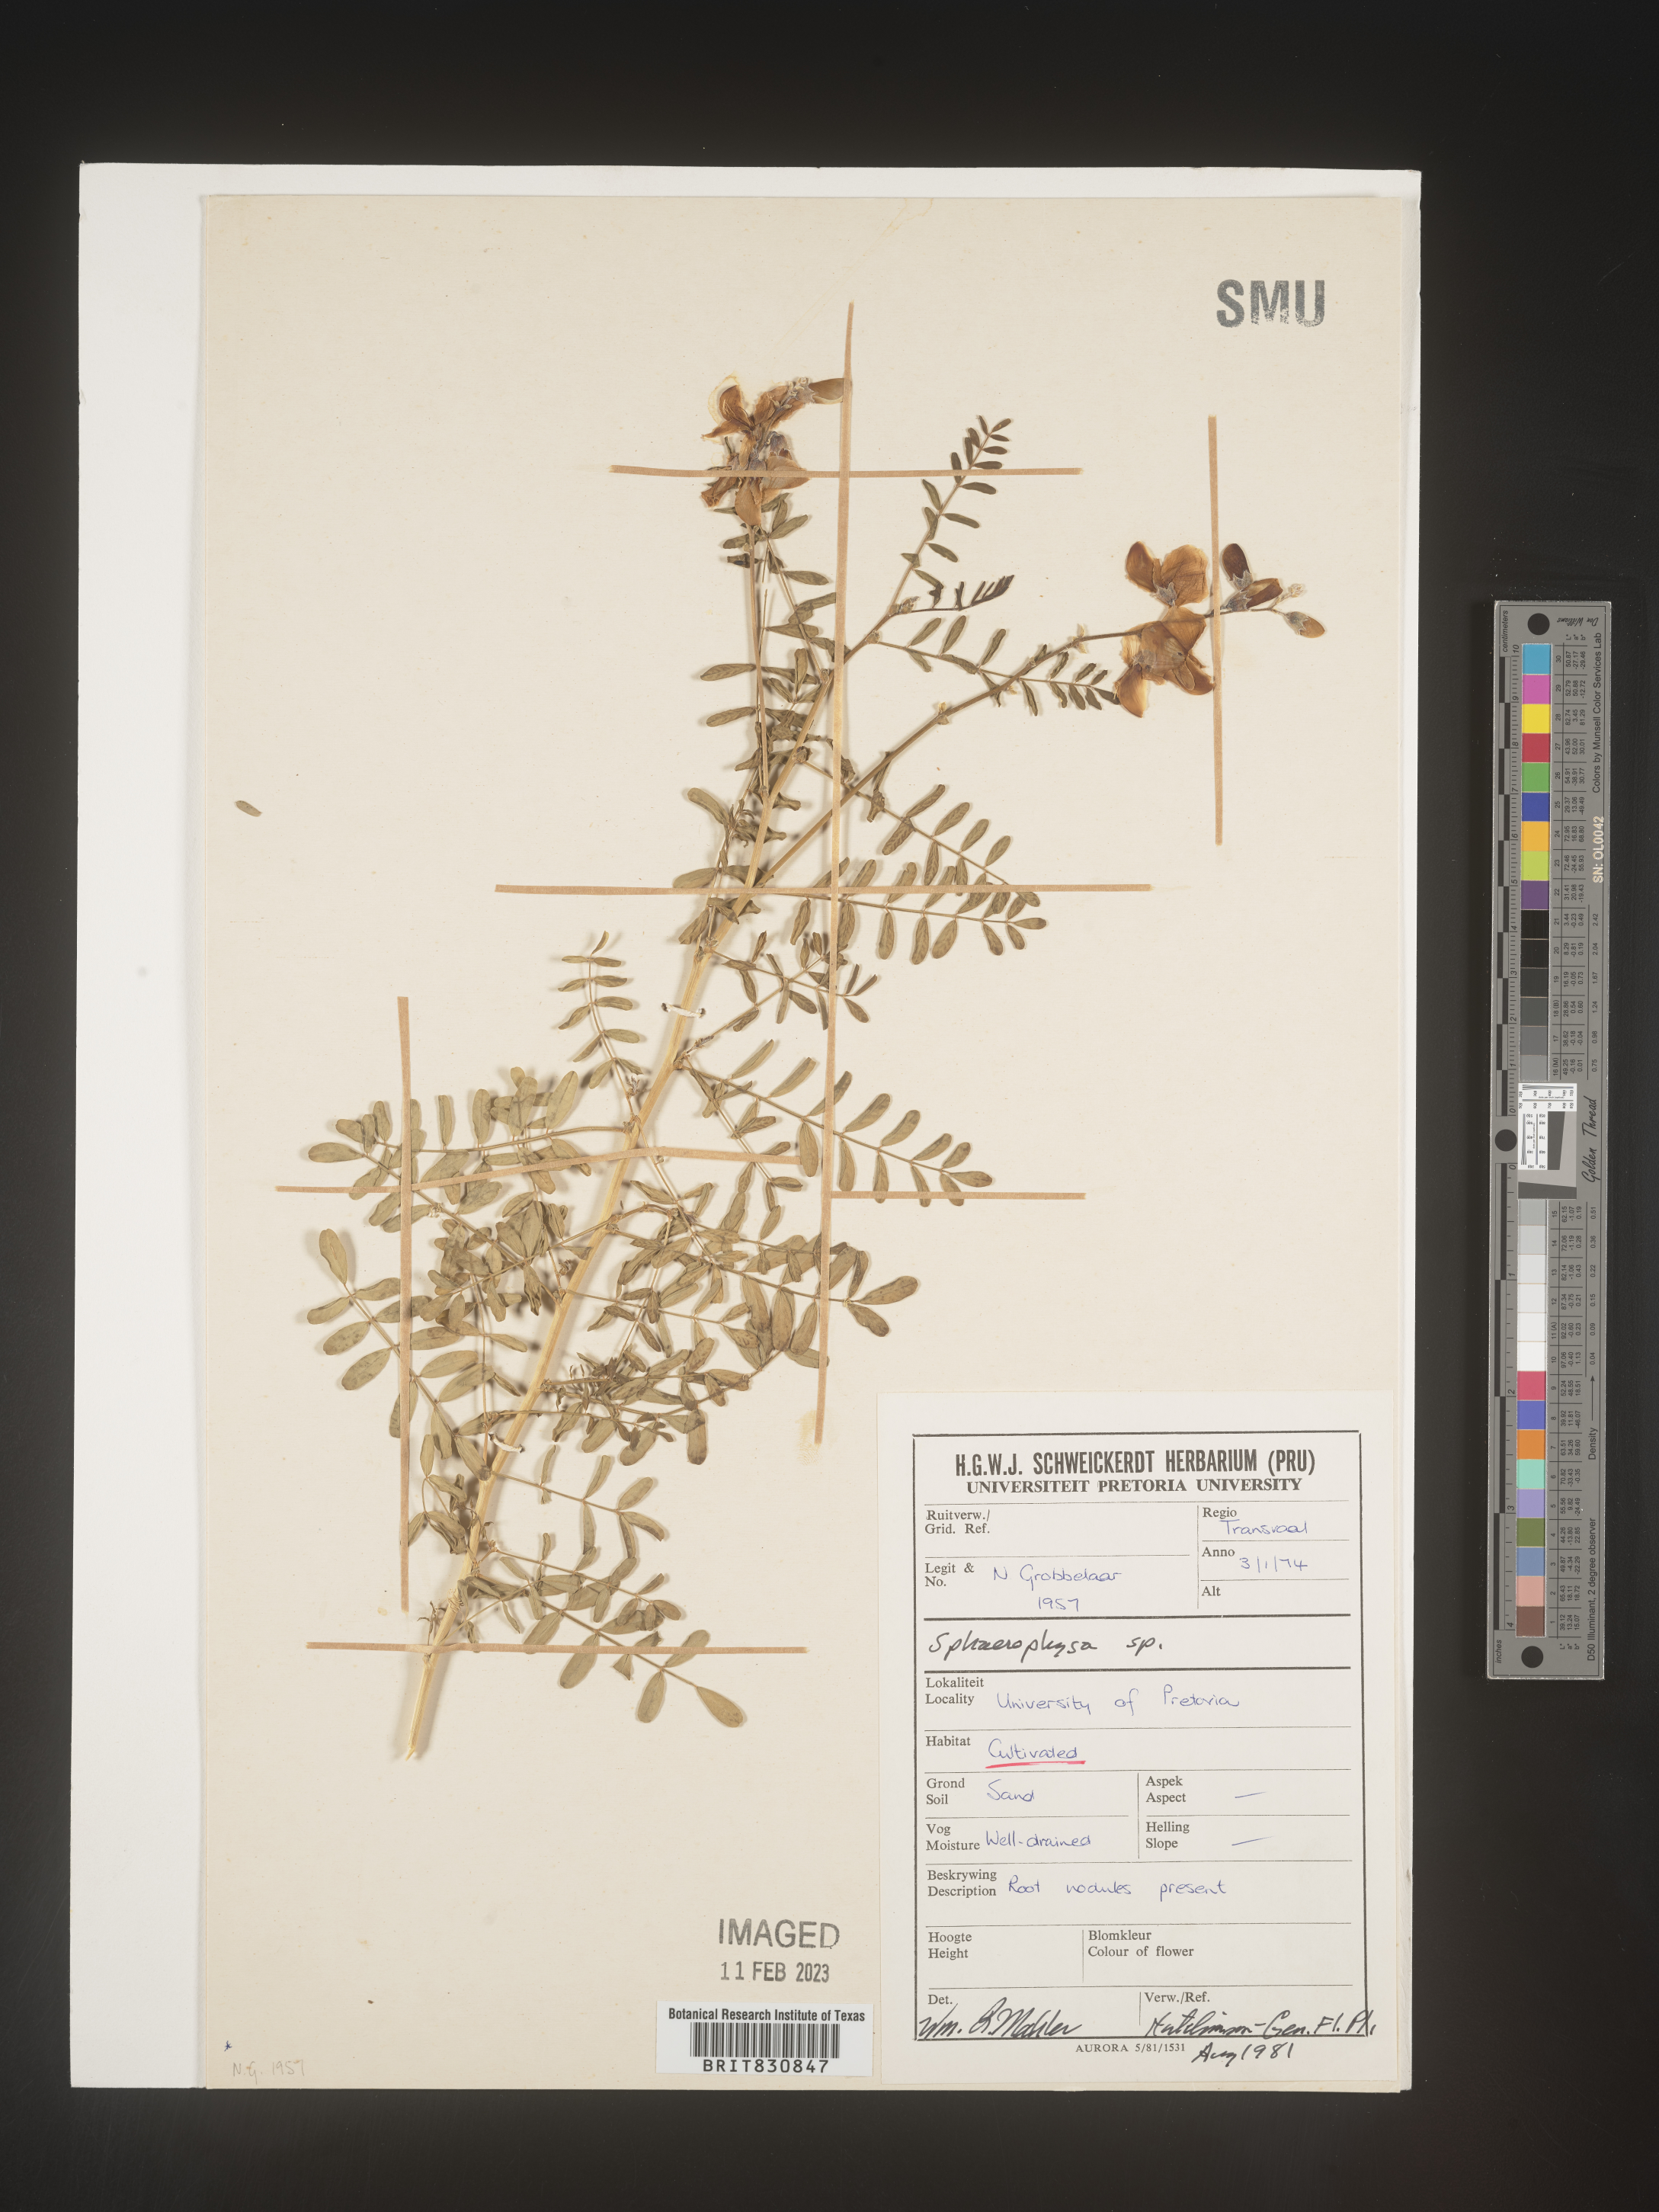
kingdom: Plantae
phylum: Tracheophyta
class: Magnoliopsida
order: Fabales
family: Fabaceae
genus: Sphaerophysa
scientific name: Sphaerophysa
